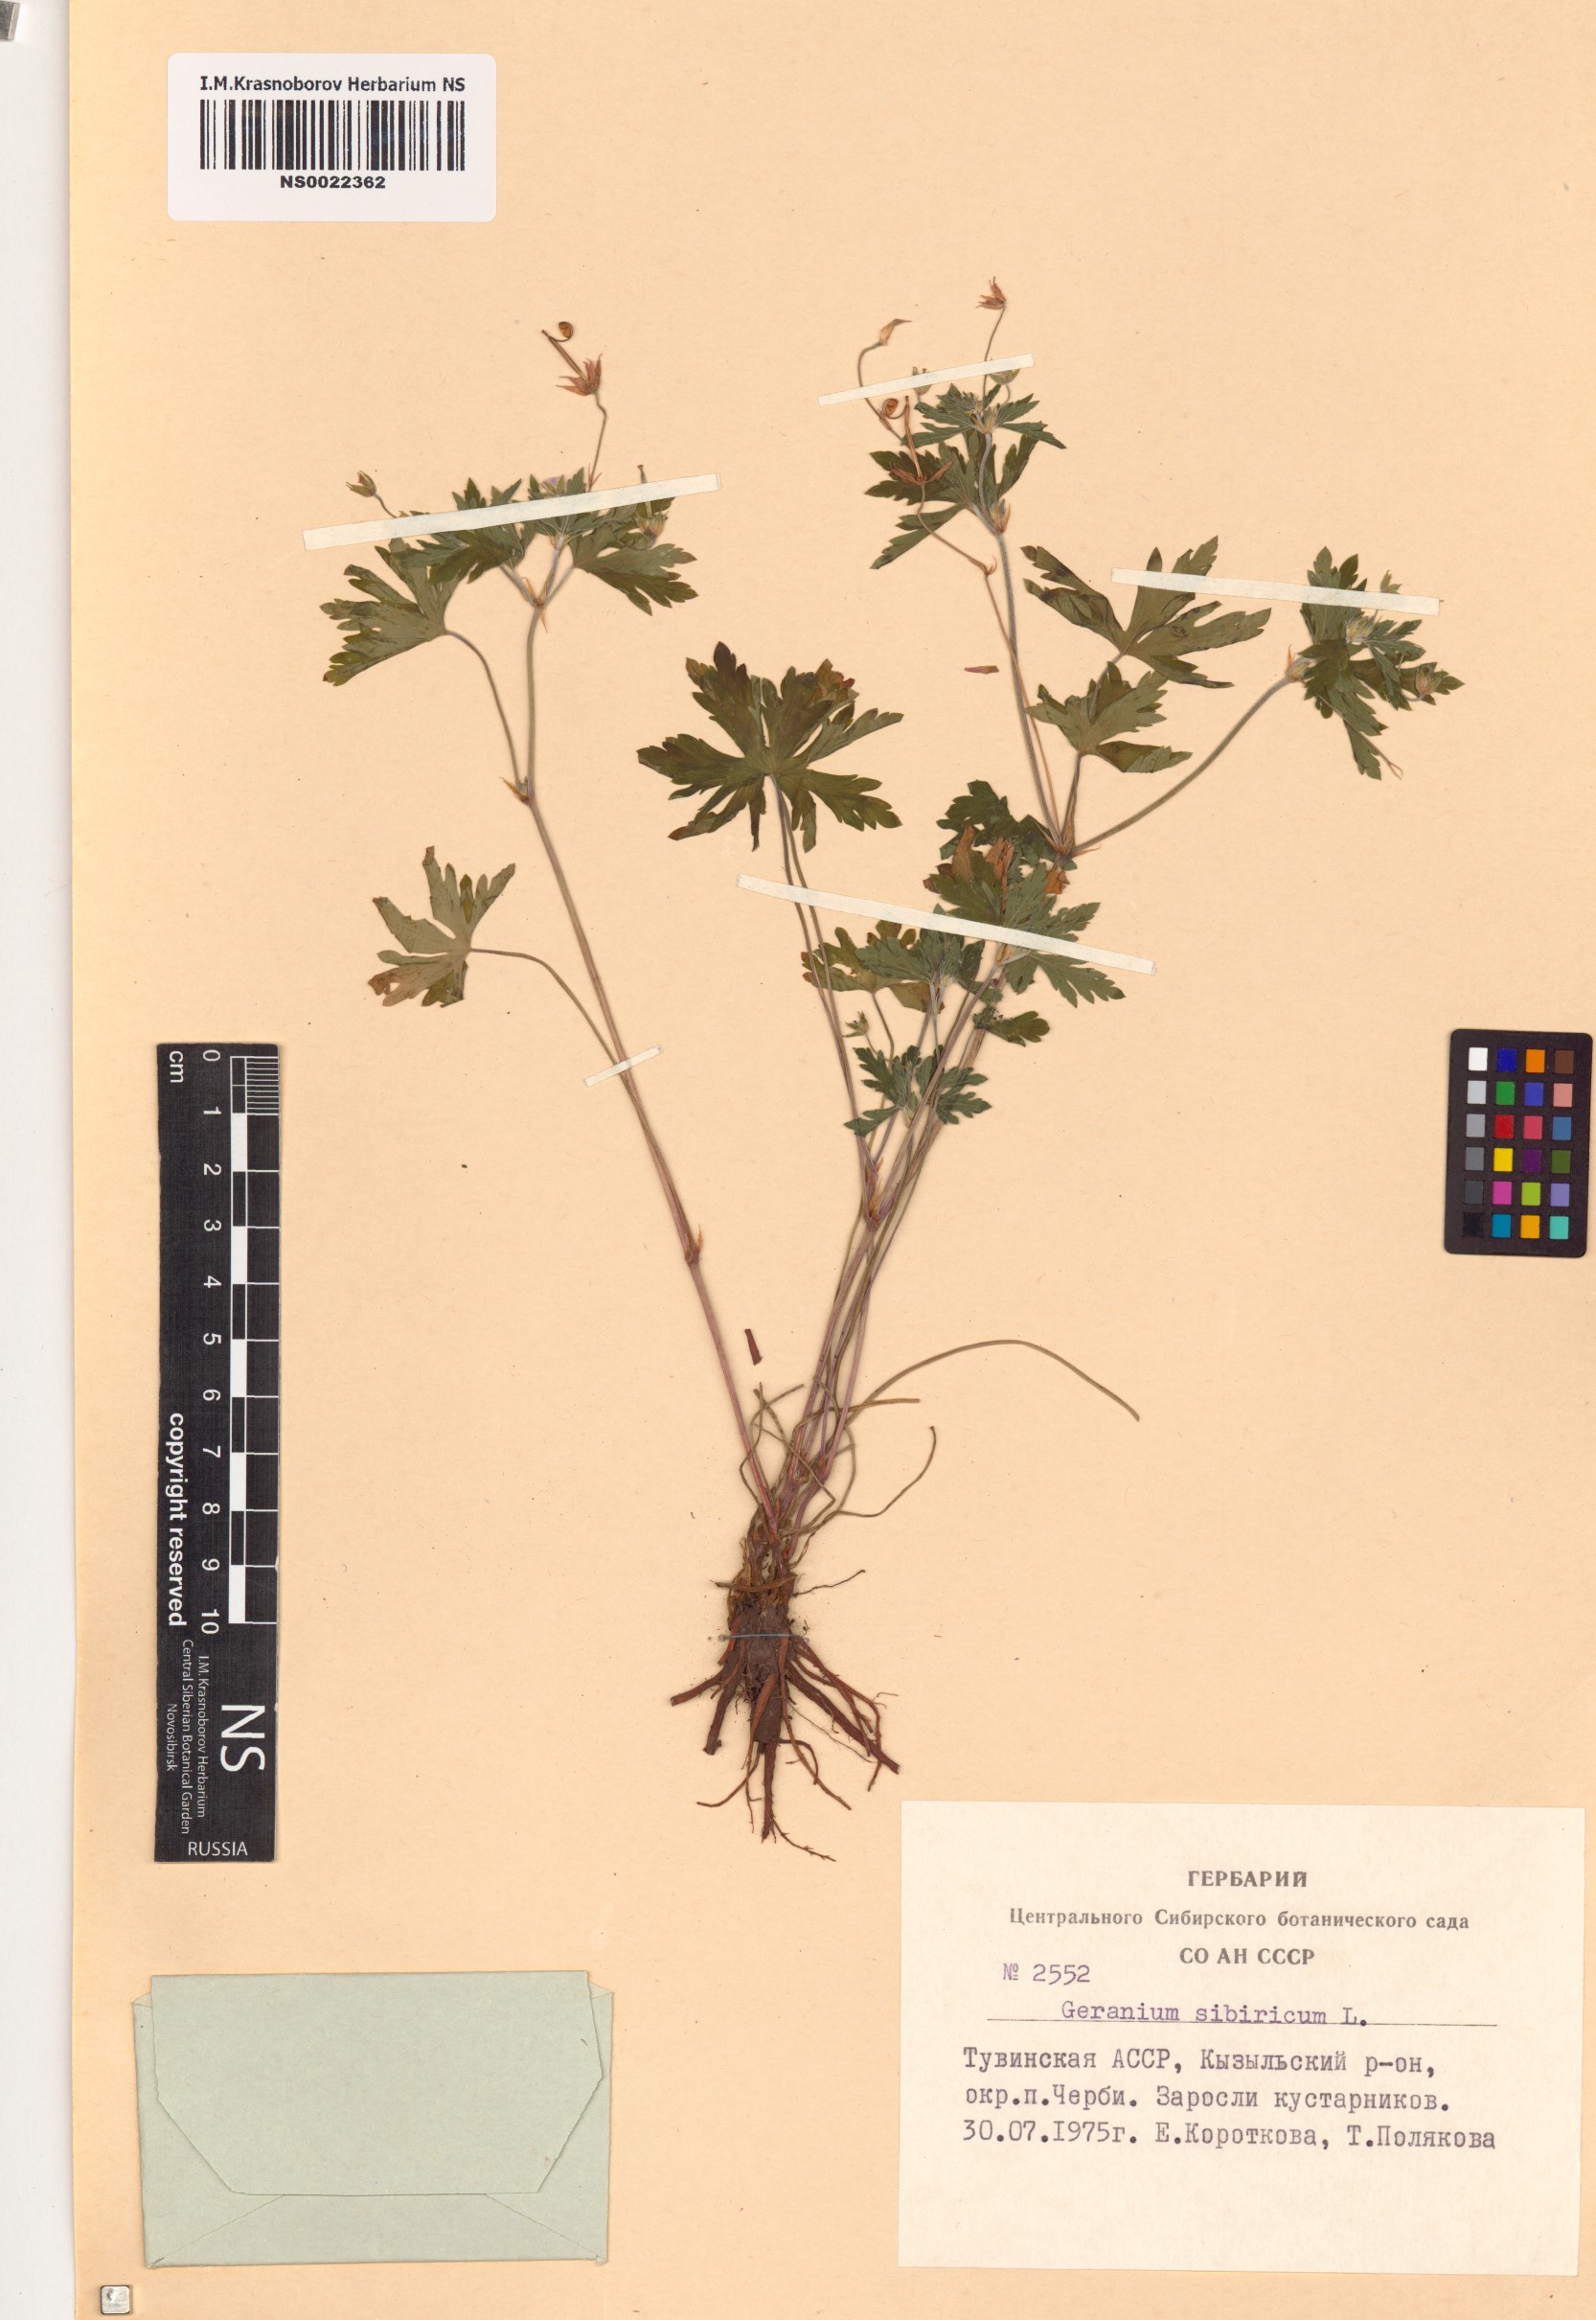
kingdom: Plantae
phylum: Tracheophyta
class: Magnoliopsida
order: Geraniales
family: Geraniaceae
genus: Geranium
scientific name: Geranium sibiricum
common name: Siberian crane's-bill
